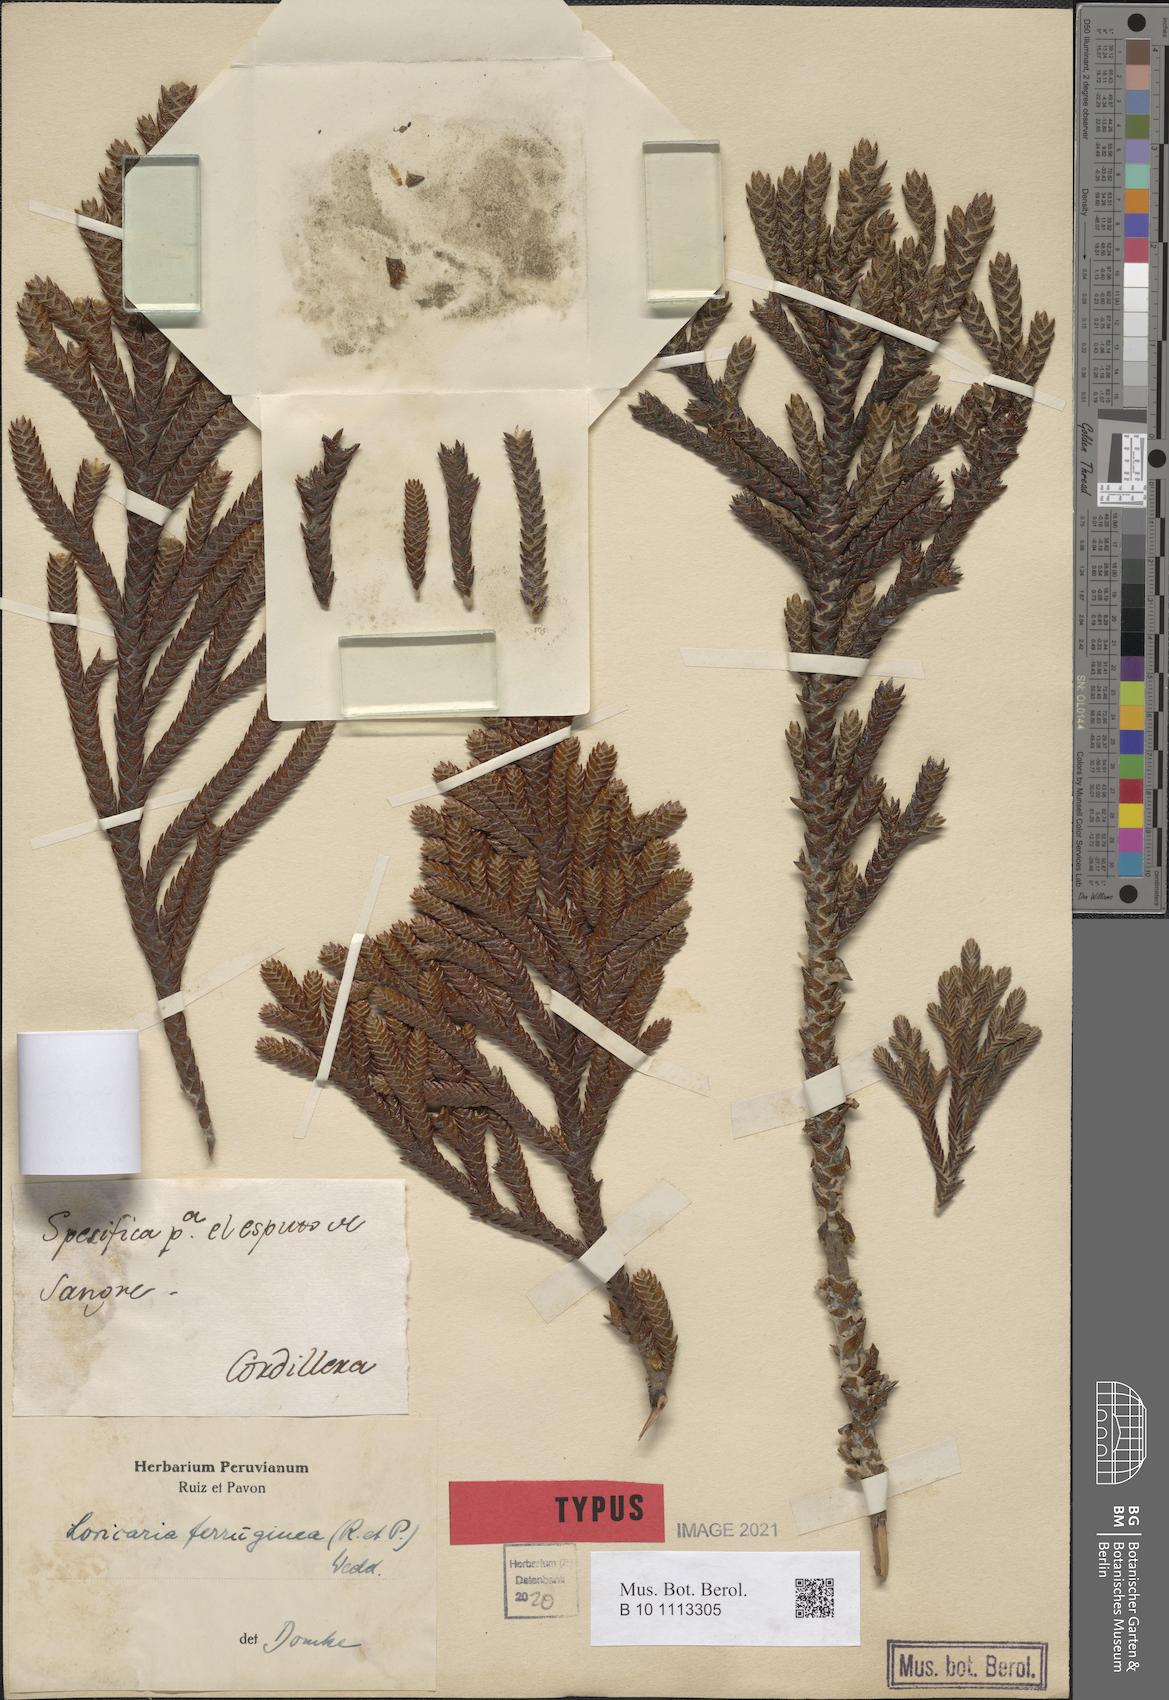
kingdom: Plantae
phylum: Tracheophyta
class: Magnoliopsida
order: Asterales
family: Asteraceae
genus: Andicolea
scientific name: Andicolea ferruginea
